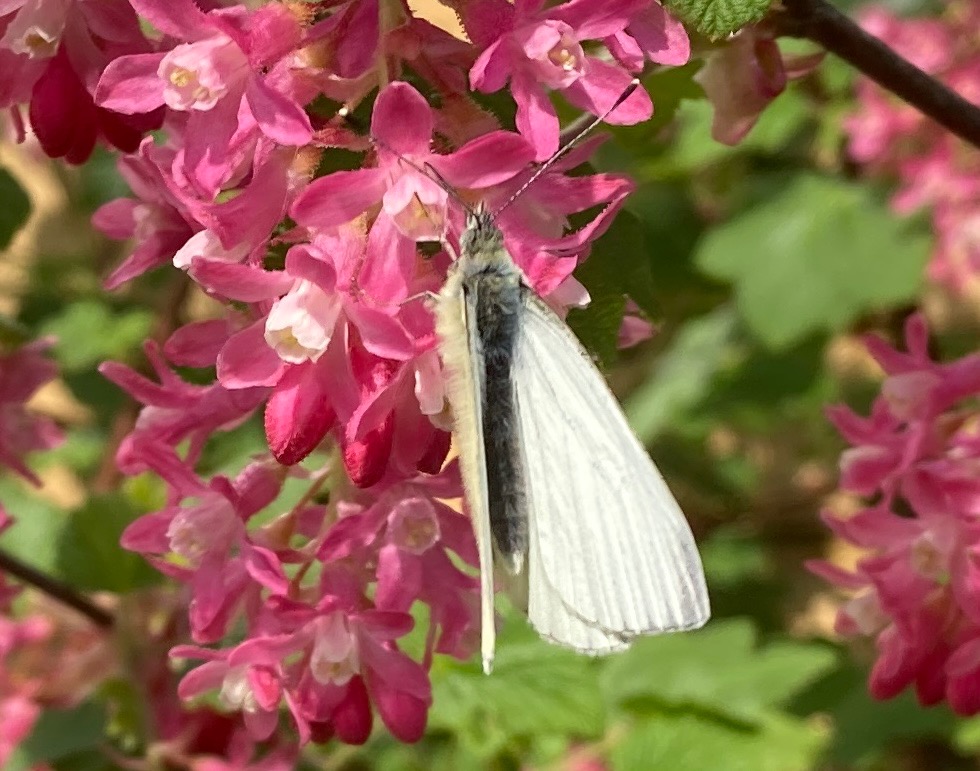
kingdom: Animalia
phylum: Arthropoda
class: Insecta
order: Lepidoptera
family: Pieridae
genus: Pieris
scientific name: Pieris napi
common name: Grønåret kålsommerfugl
